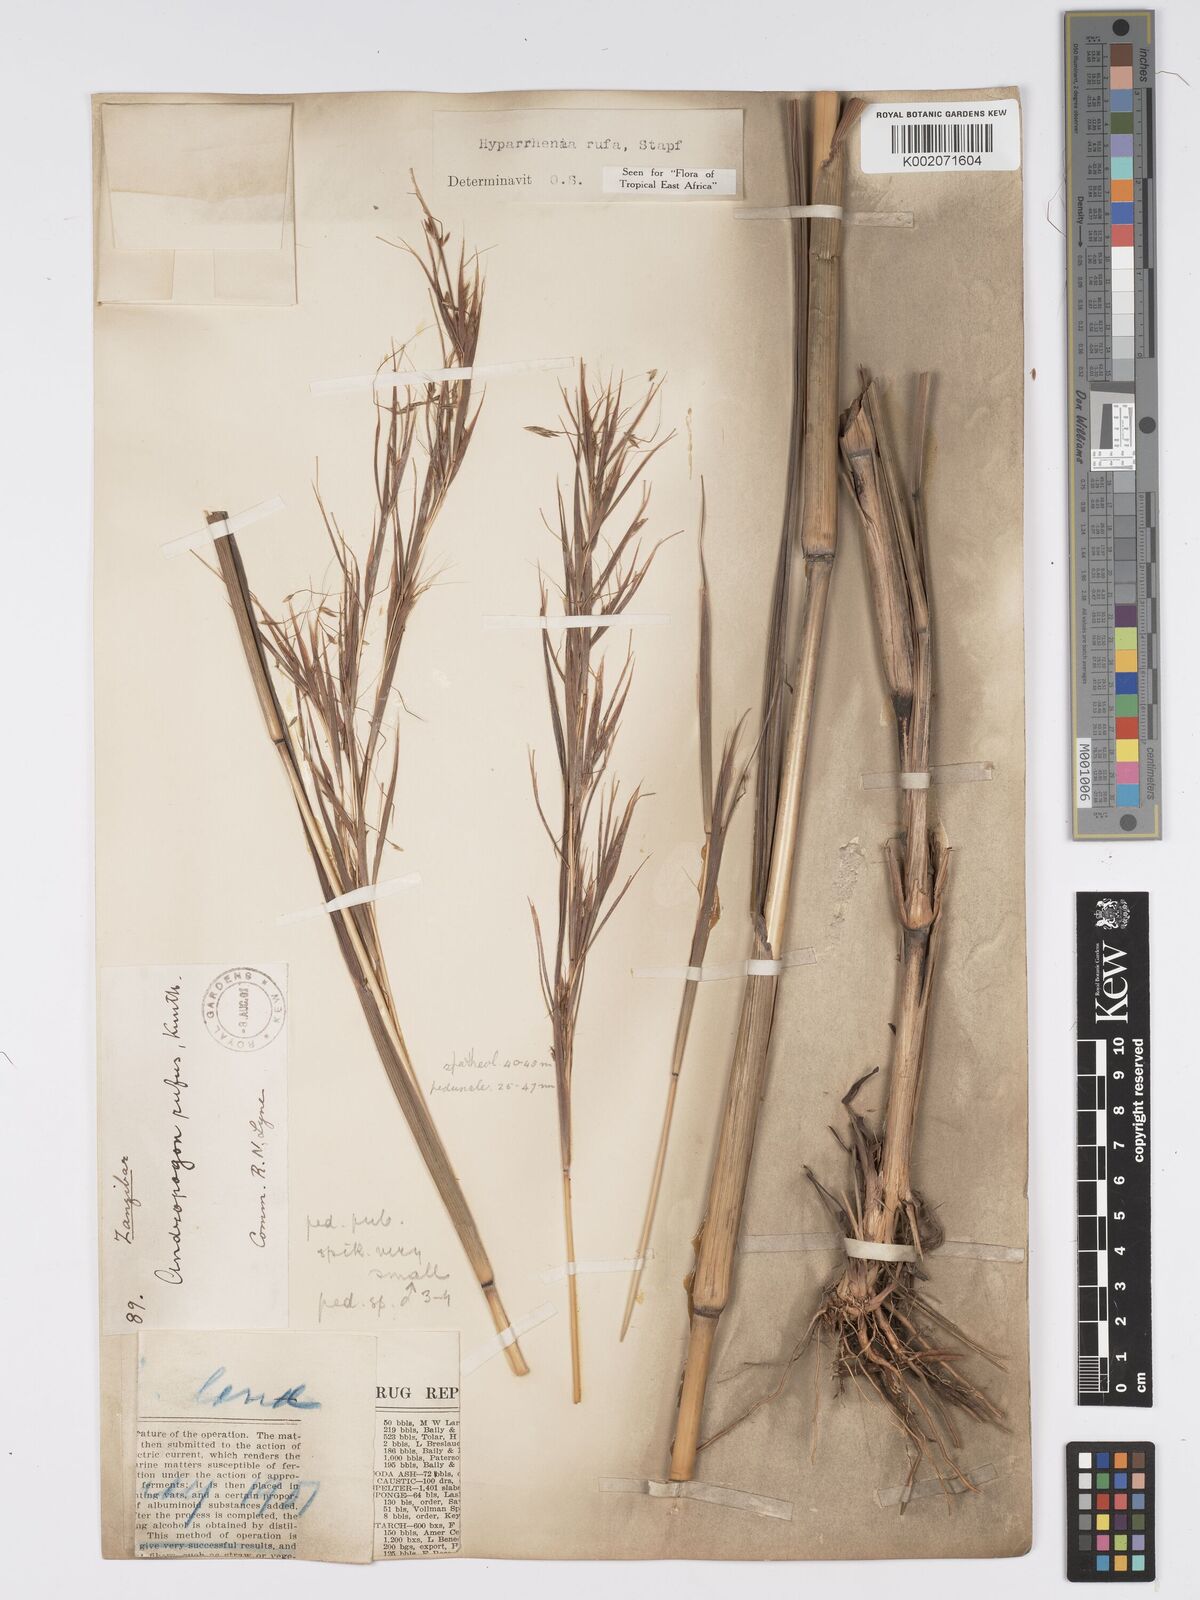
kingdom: Plantae
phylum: Tracheophyta
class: Liliopsida
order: Poales
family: Poaceae
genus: Hyparrhenia
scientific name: Hyparrhenia rufa
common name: Jaraguagrass
